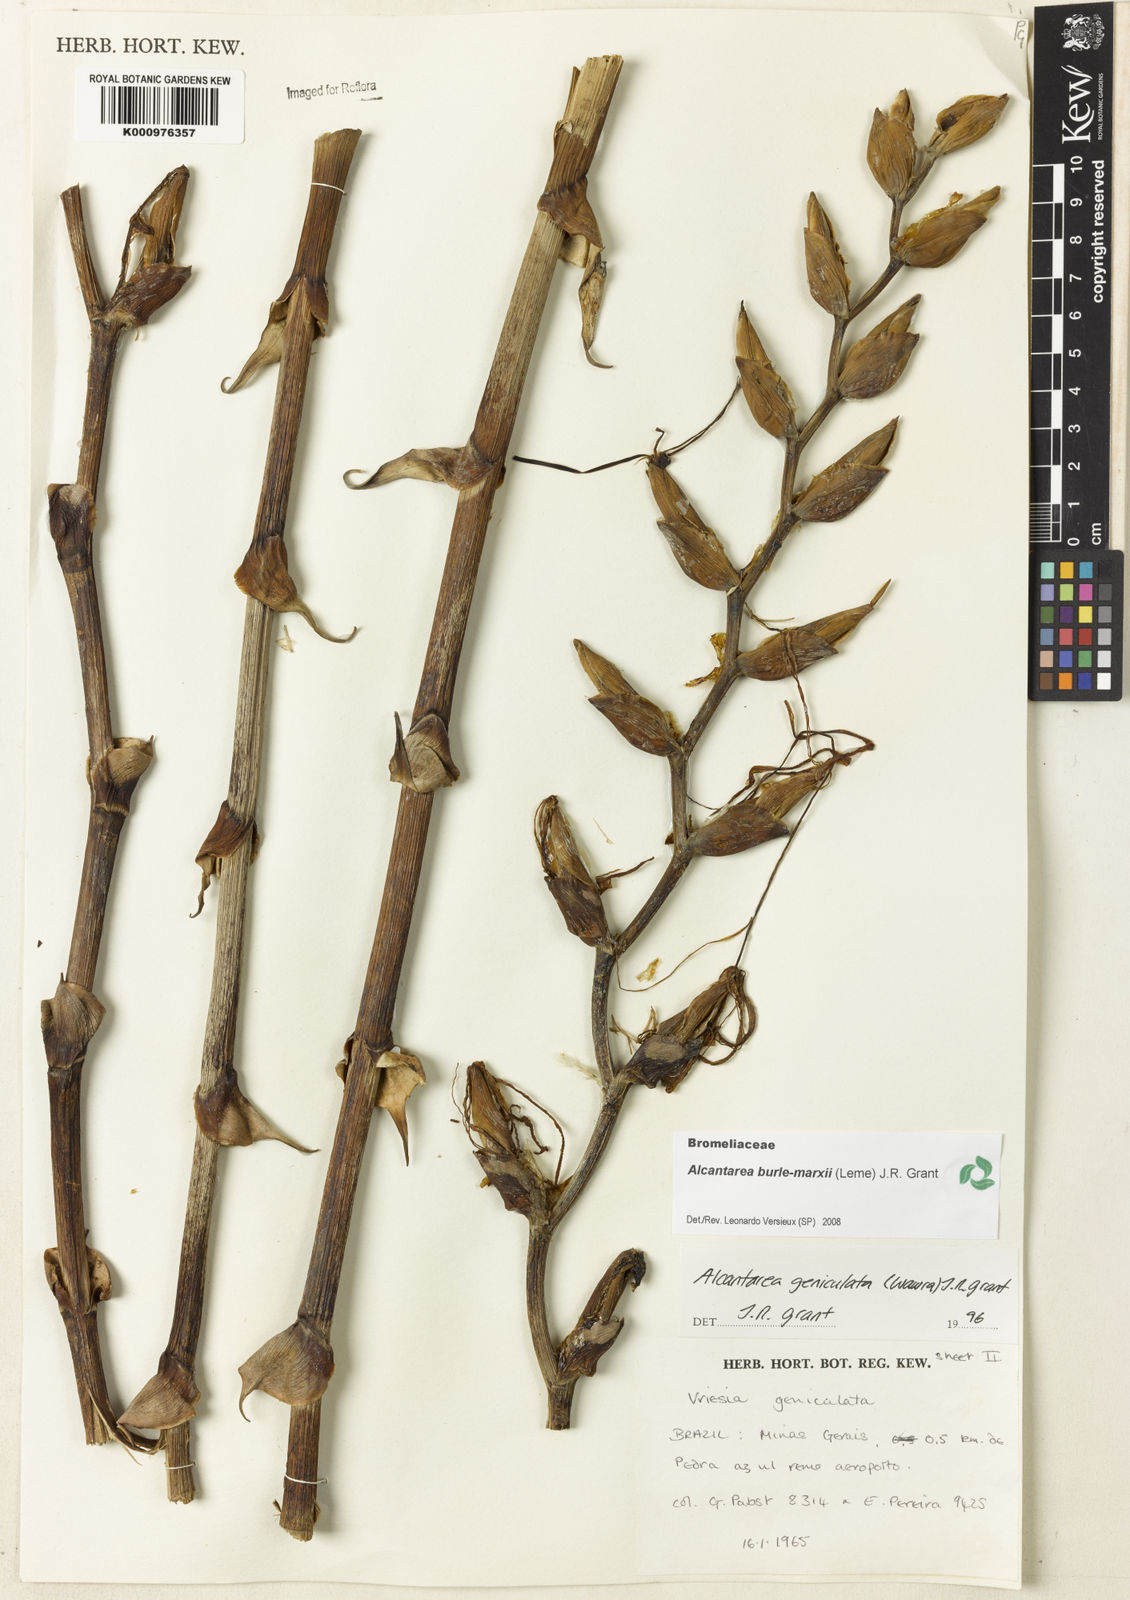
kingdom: Plantae
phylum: Tracheophyta
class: Liliopsida
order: Poales
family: Bromeliaceae
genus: Alcantarea
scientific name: Alcantarea burle-marxii
